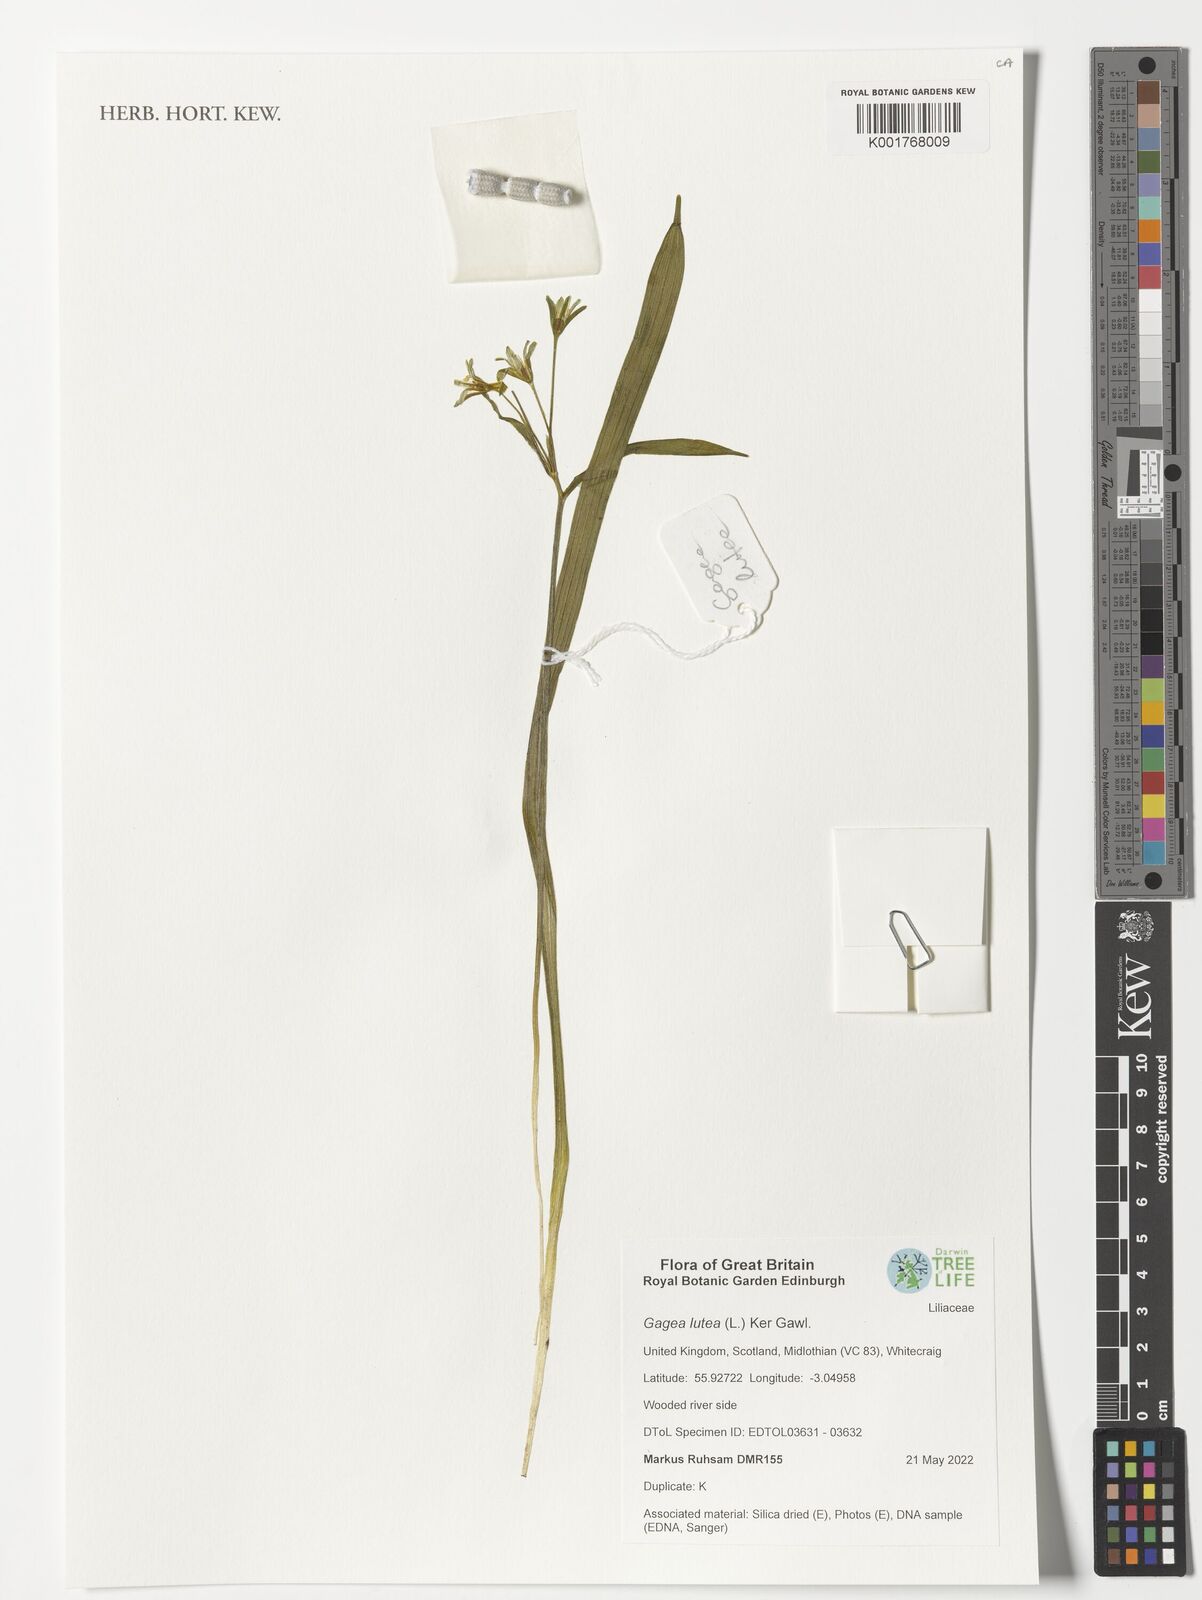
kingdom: Plantae
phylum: Tracheophyta
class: Liliopsida
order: Liliales
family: Liliaceae
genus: Gagea
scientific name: Gagea lutea
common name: Yellow star-of-bethlehem
